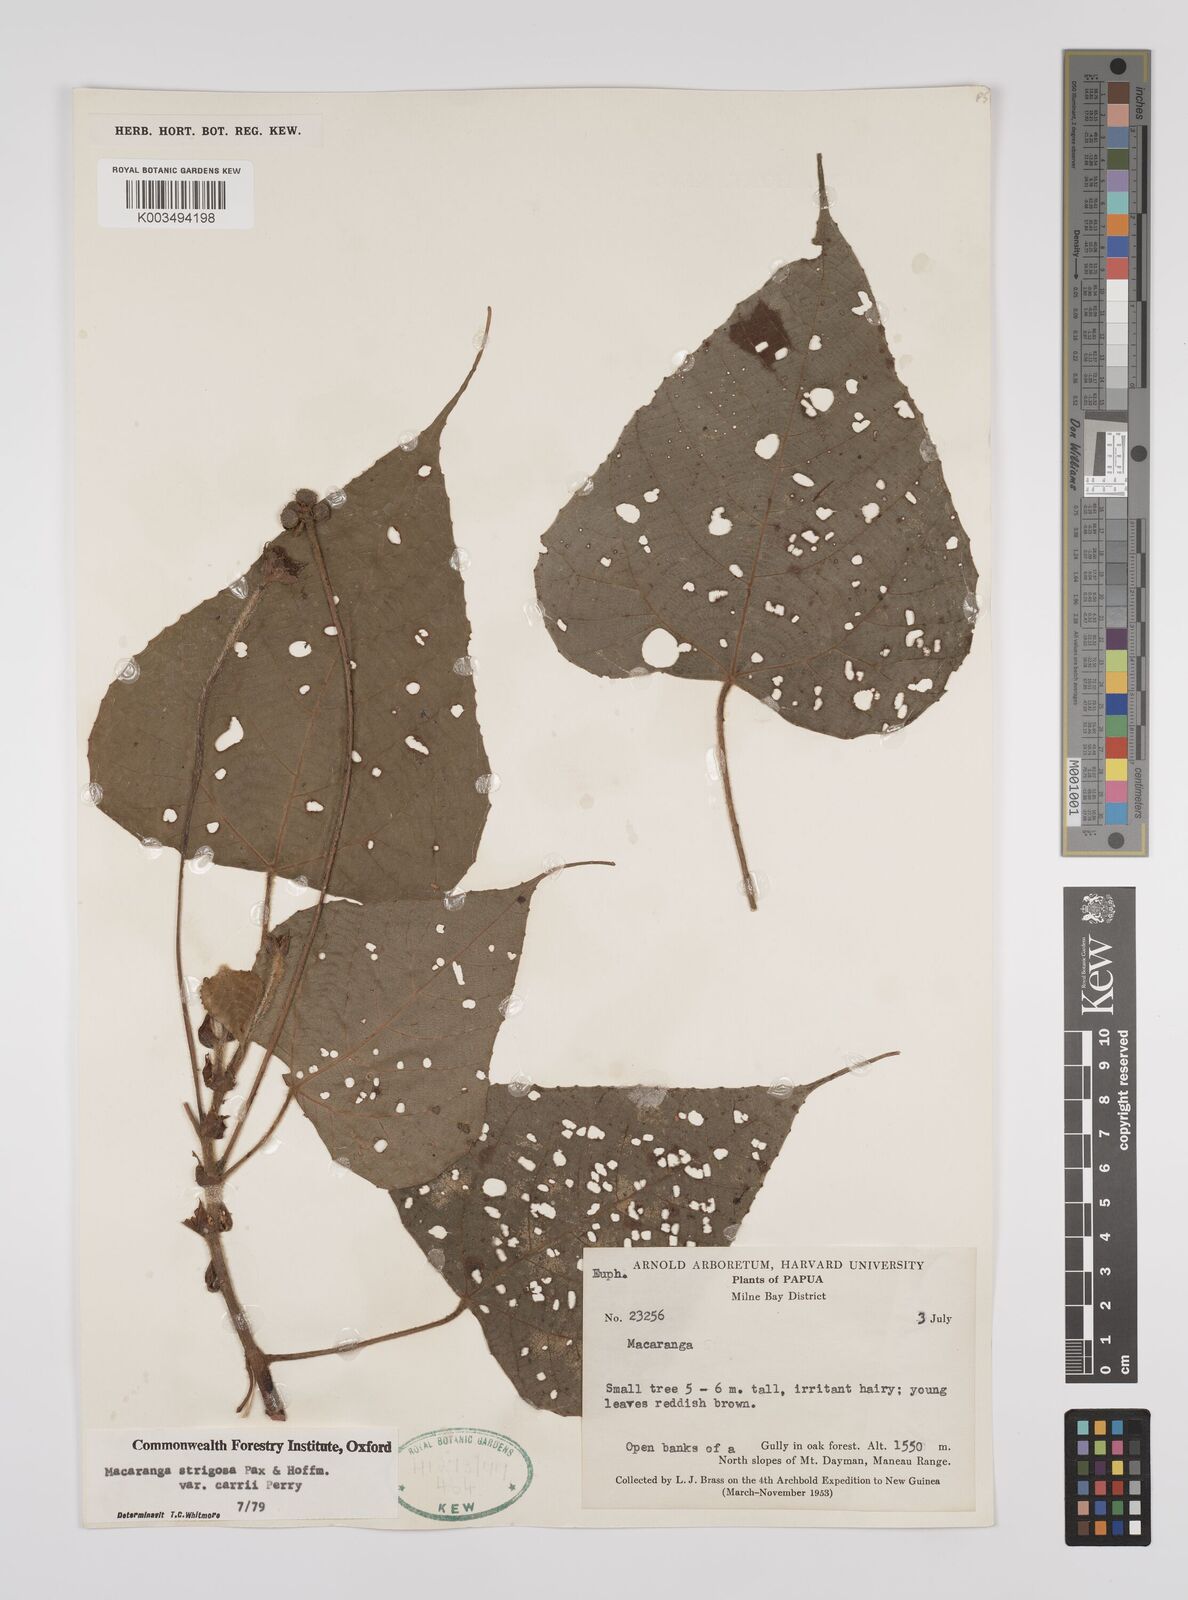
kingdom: Plantae
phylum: Tracheophyta
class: Magnoliopsida
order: Malpighiales
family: Euphorbiaceae
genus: Macaranga
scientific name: Macaranga strigosa
